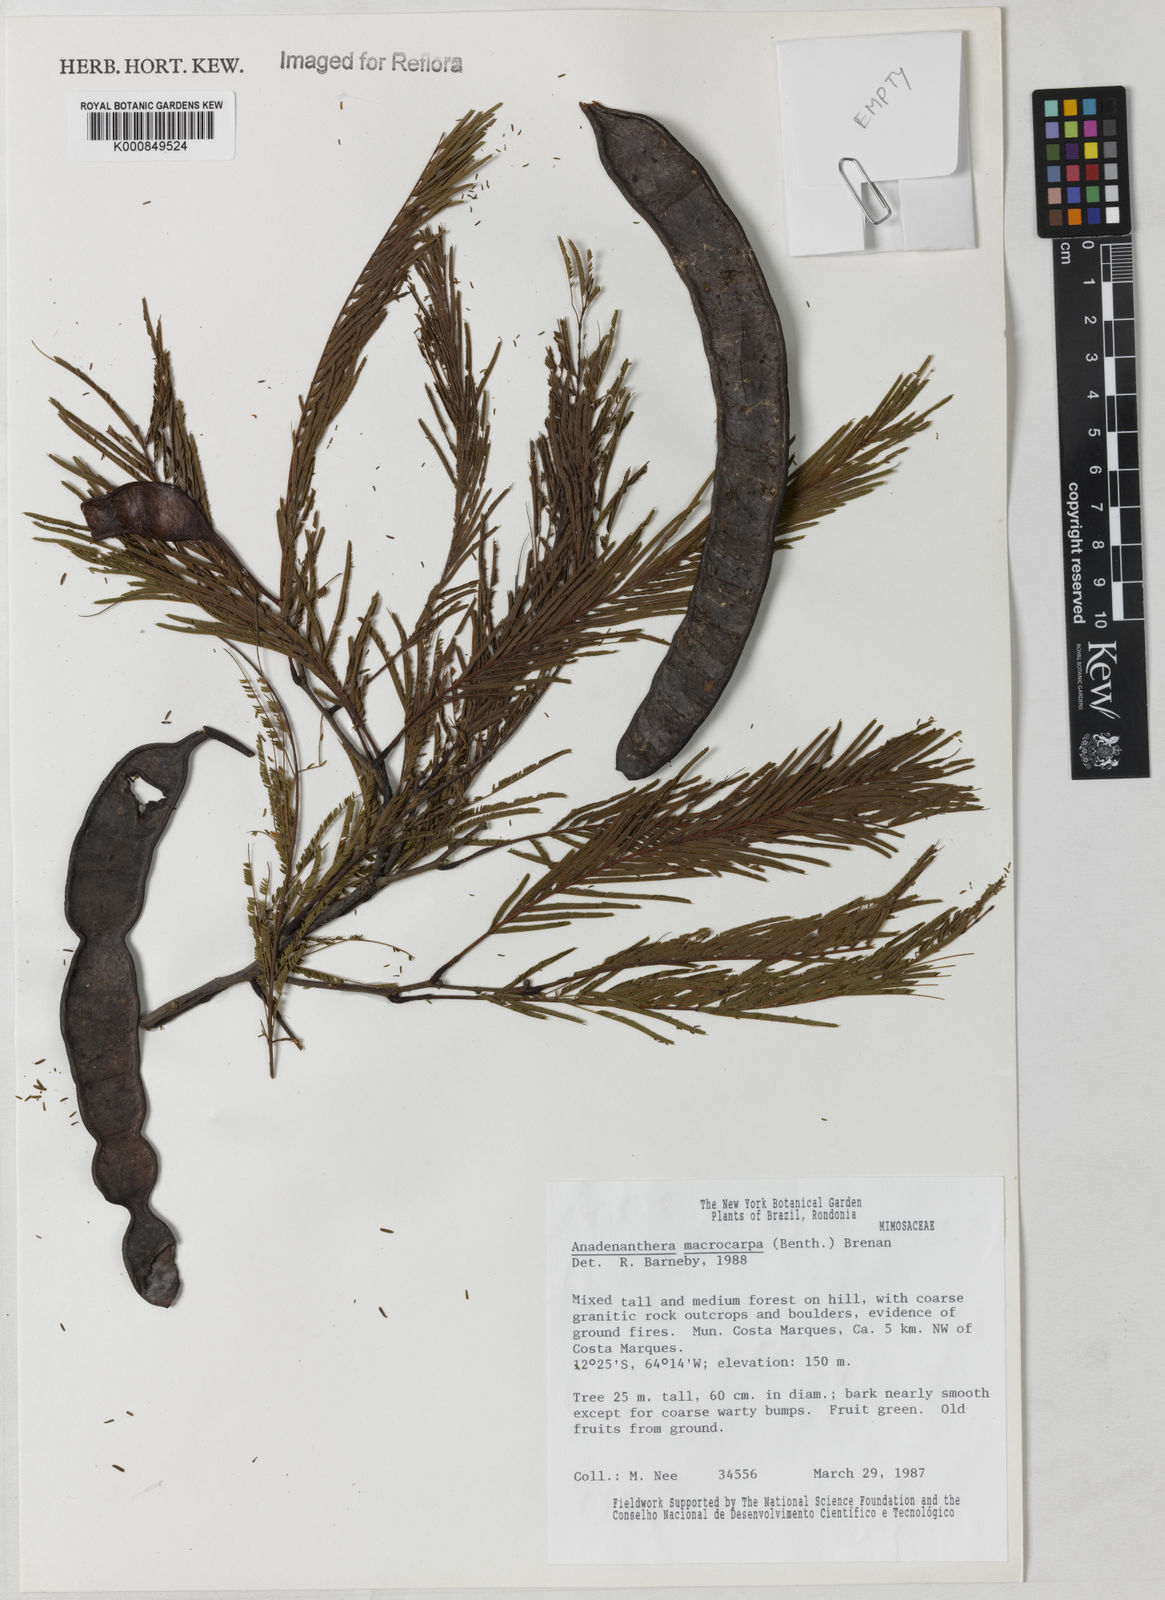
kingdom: Plantae
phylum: Tracheophyta
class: Magnoliopsida
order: Fabales
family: Fabaceae
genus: Anadenanthera
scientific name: Anadenanthera colubrina
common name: Curupay
